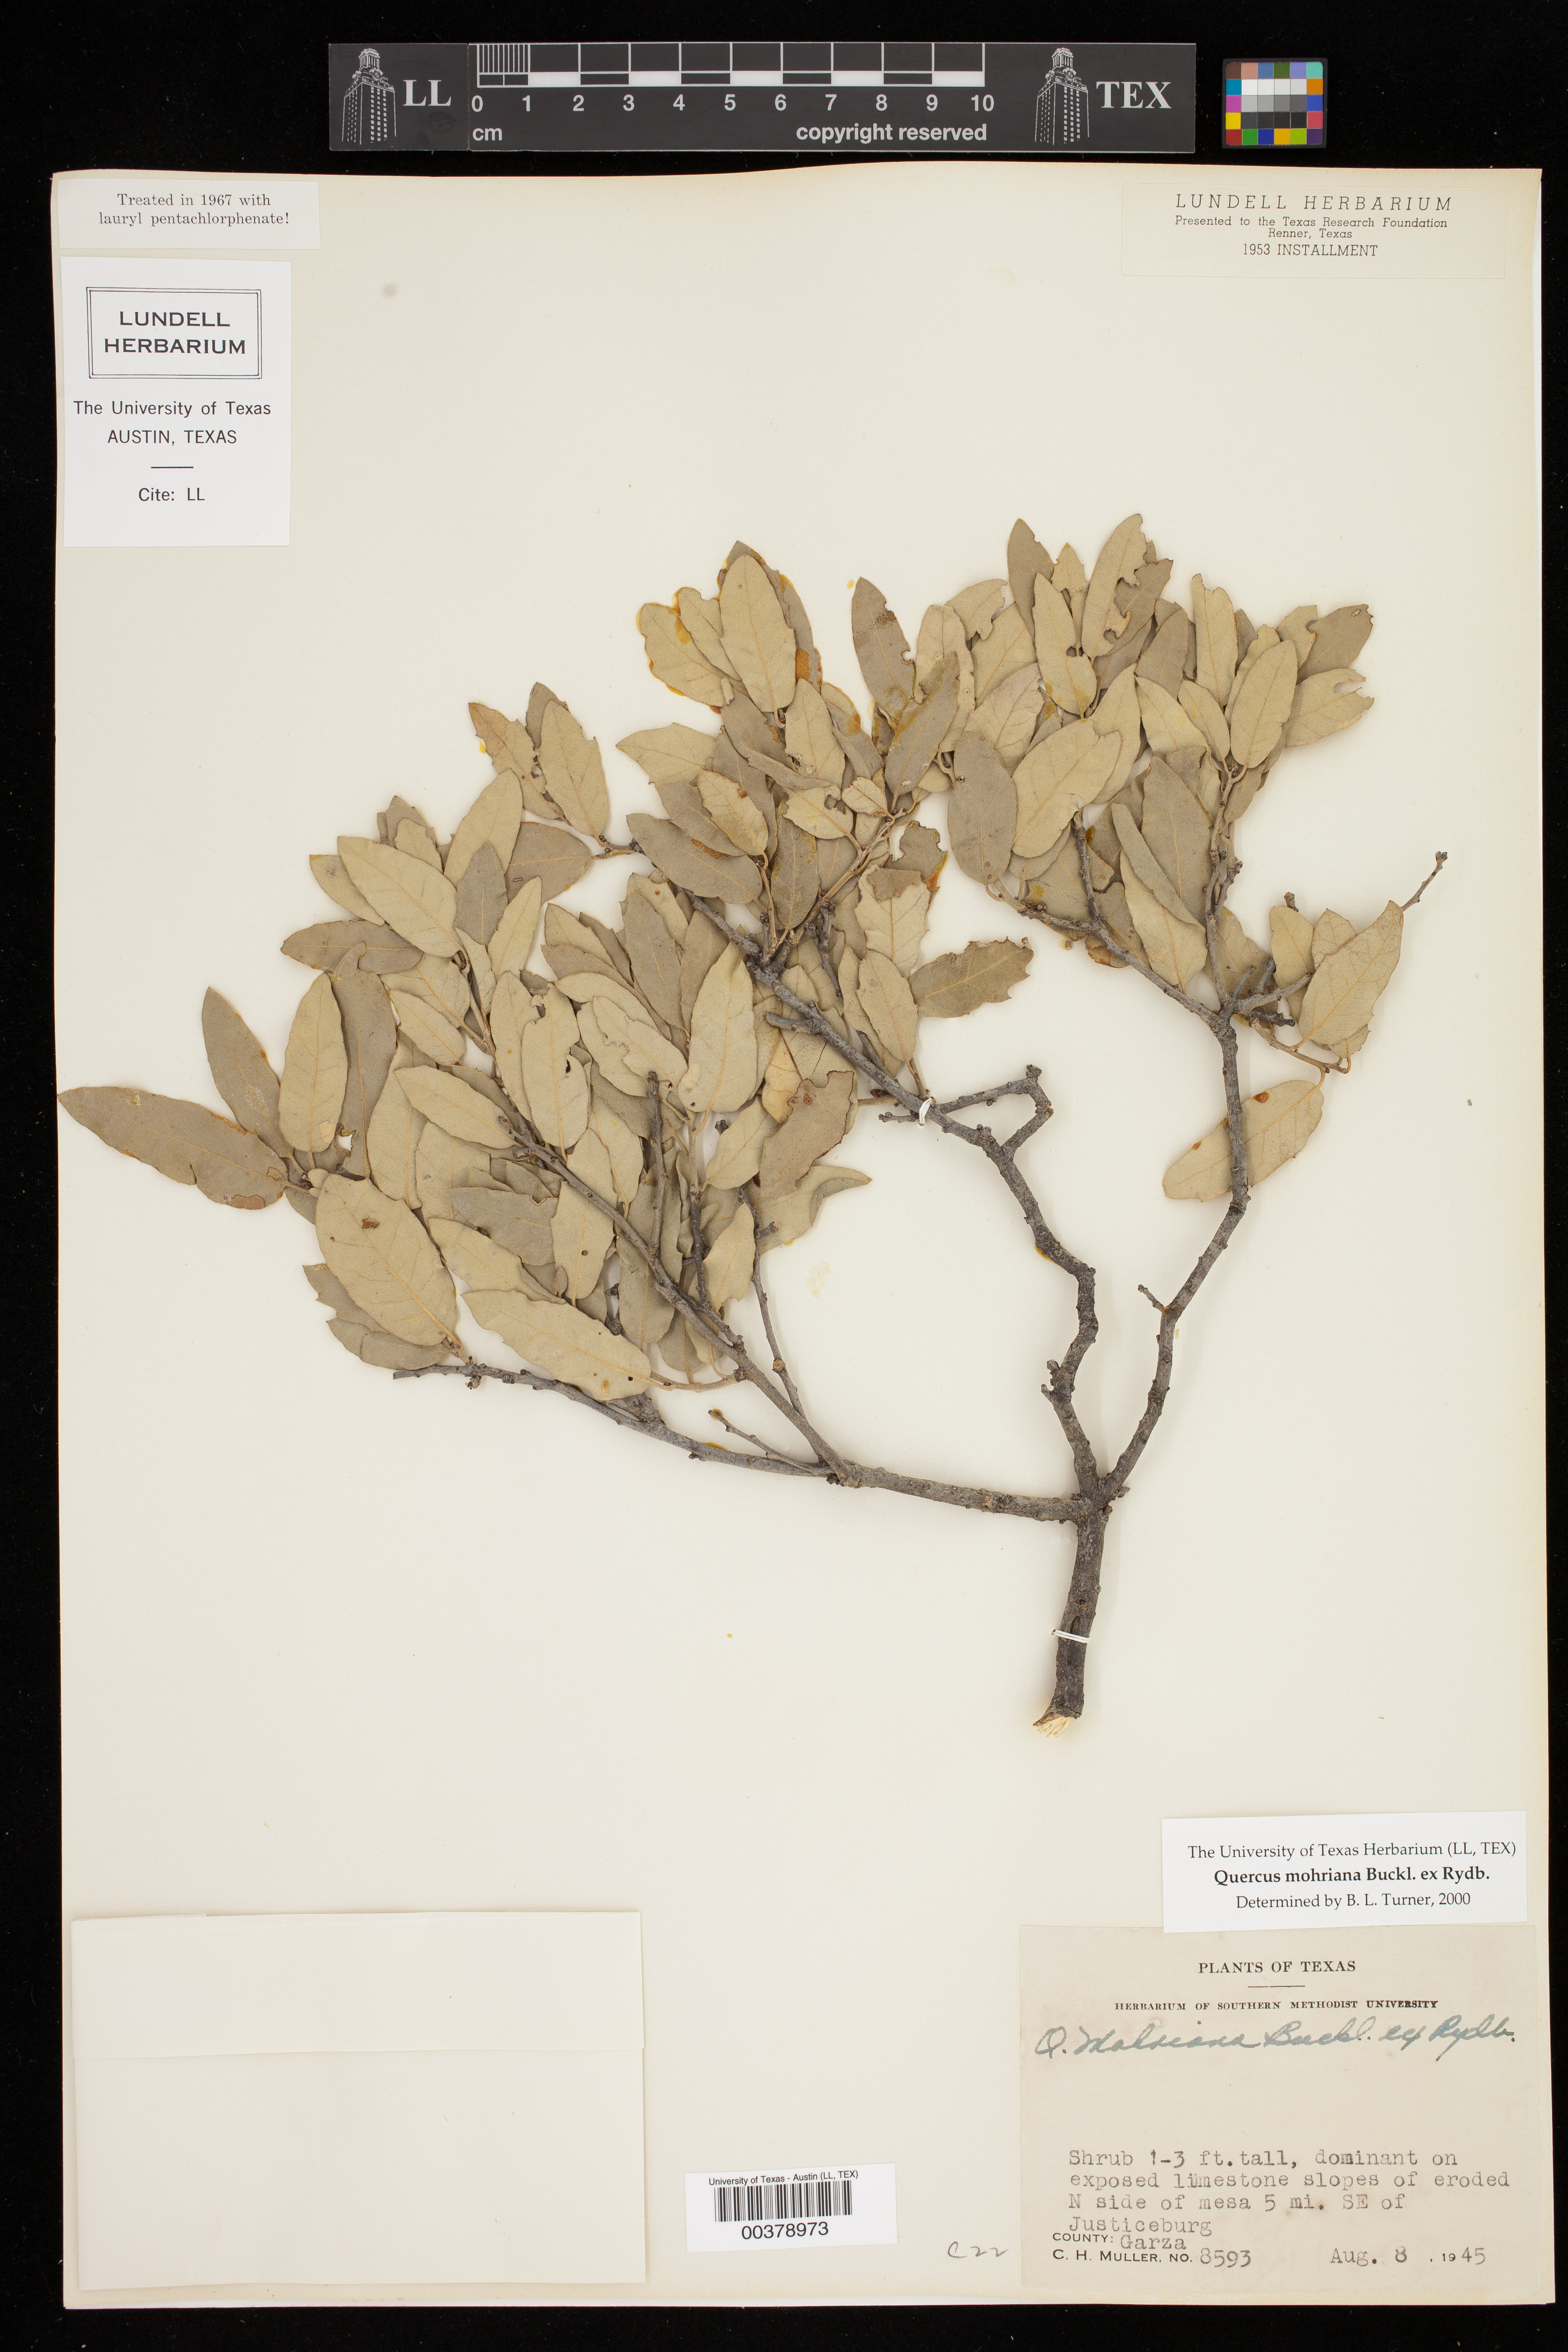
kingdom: Plantae
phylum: Tracheophyta
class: Magnoliopsida
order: Fagales
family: Fagaceae
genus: Quercus
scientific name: Quercus mohriana
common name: Mohr oak
